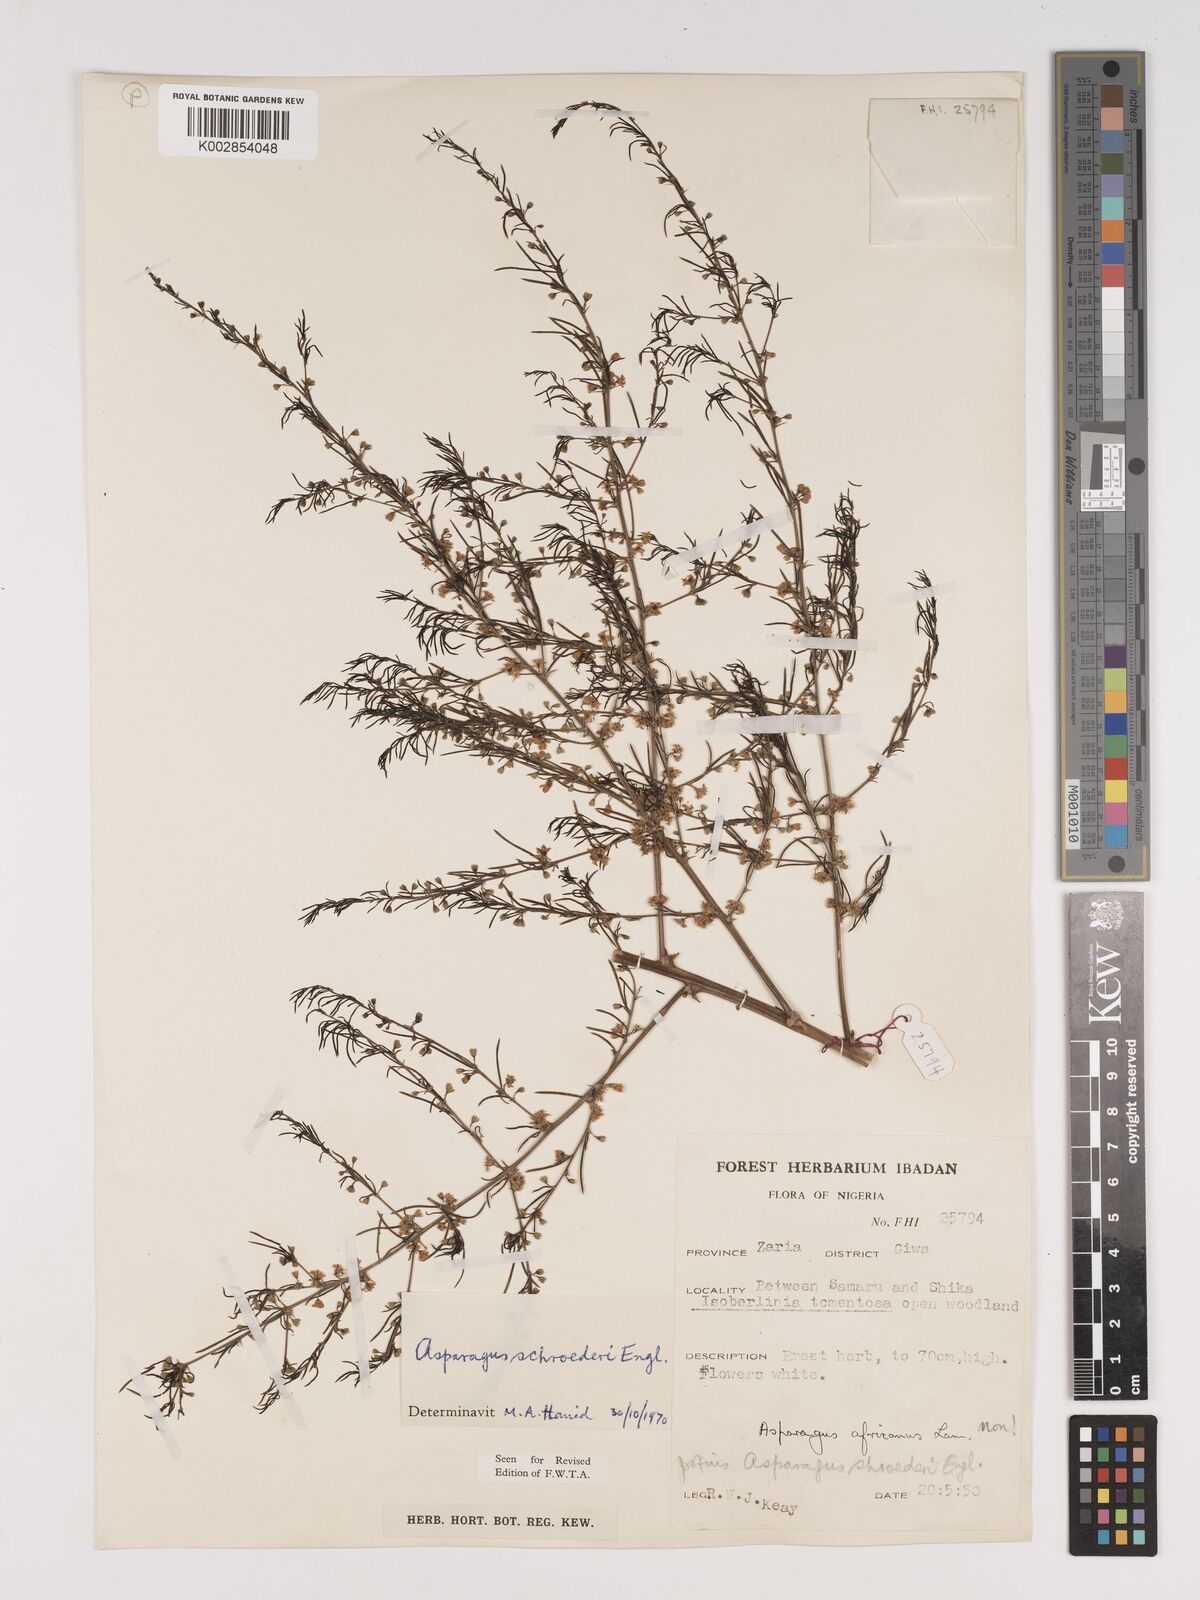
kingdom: Plantae
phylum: Tracheophyta
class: Liliopsida
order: Asparagales
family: Asparagaceae
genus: Asparagus
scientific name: Asparagus schroederi
